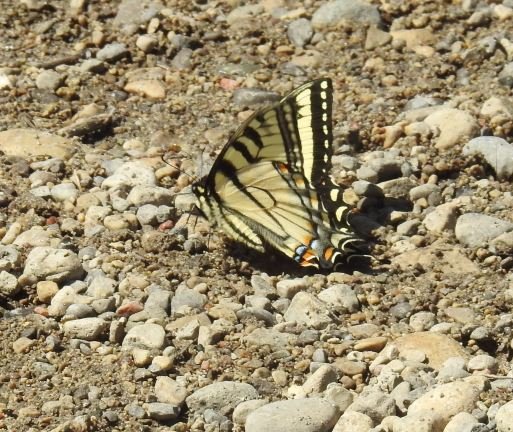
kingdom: Animalia
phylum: Arthropoda
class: Insecta
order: Lepidoptera
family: Papilionidae
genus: Pterourus
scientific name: Pterourus glaucus
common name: Eastern Tiger Swallowtail
